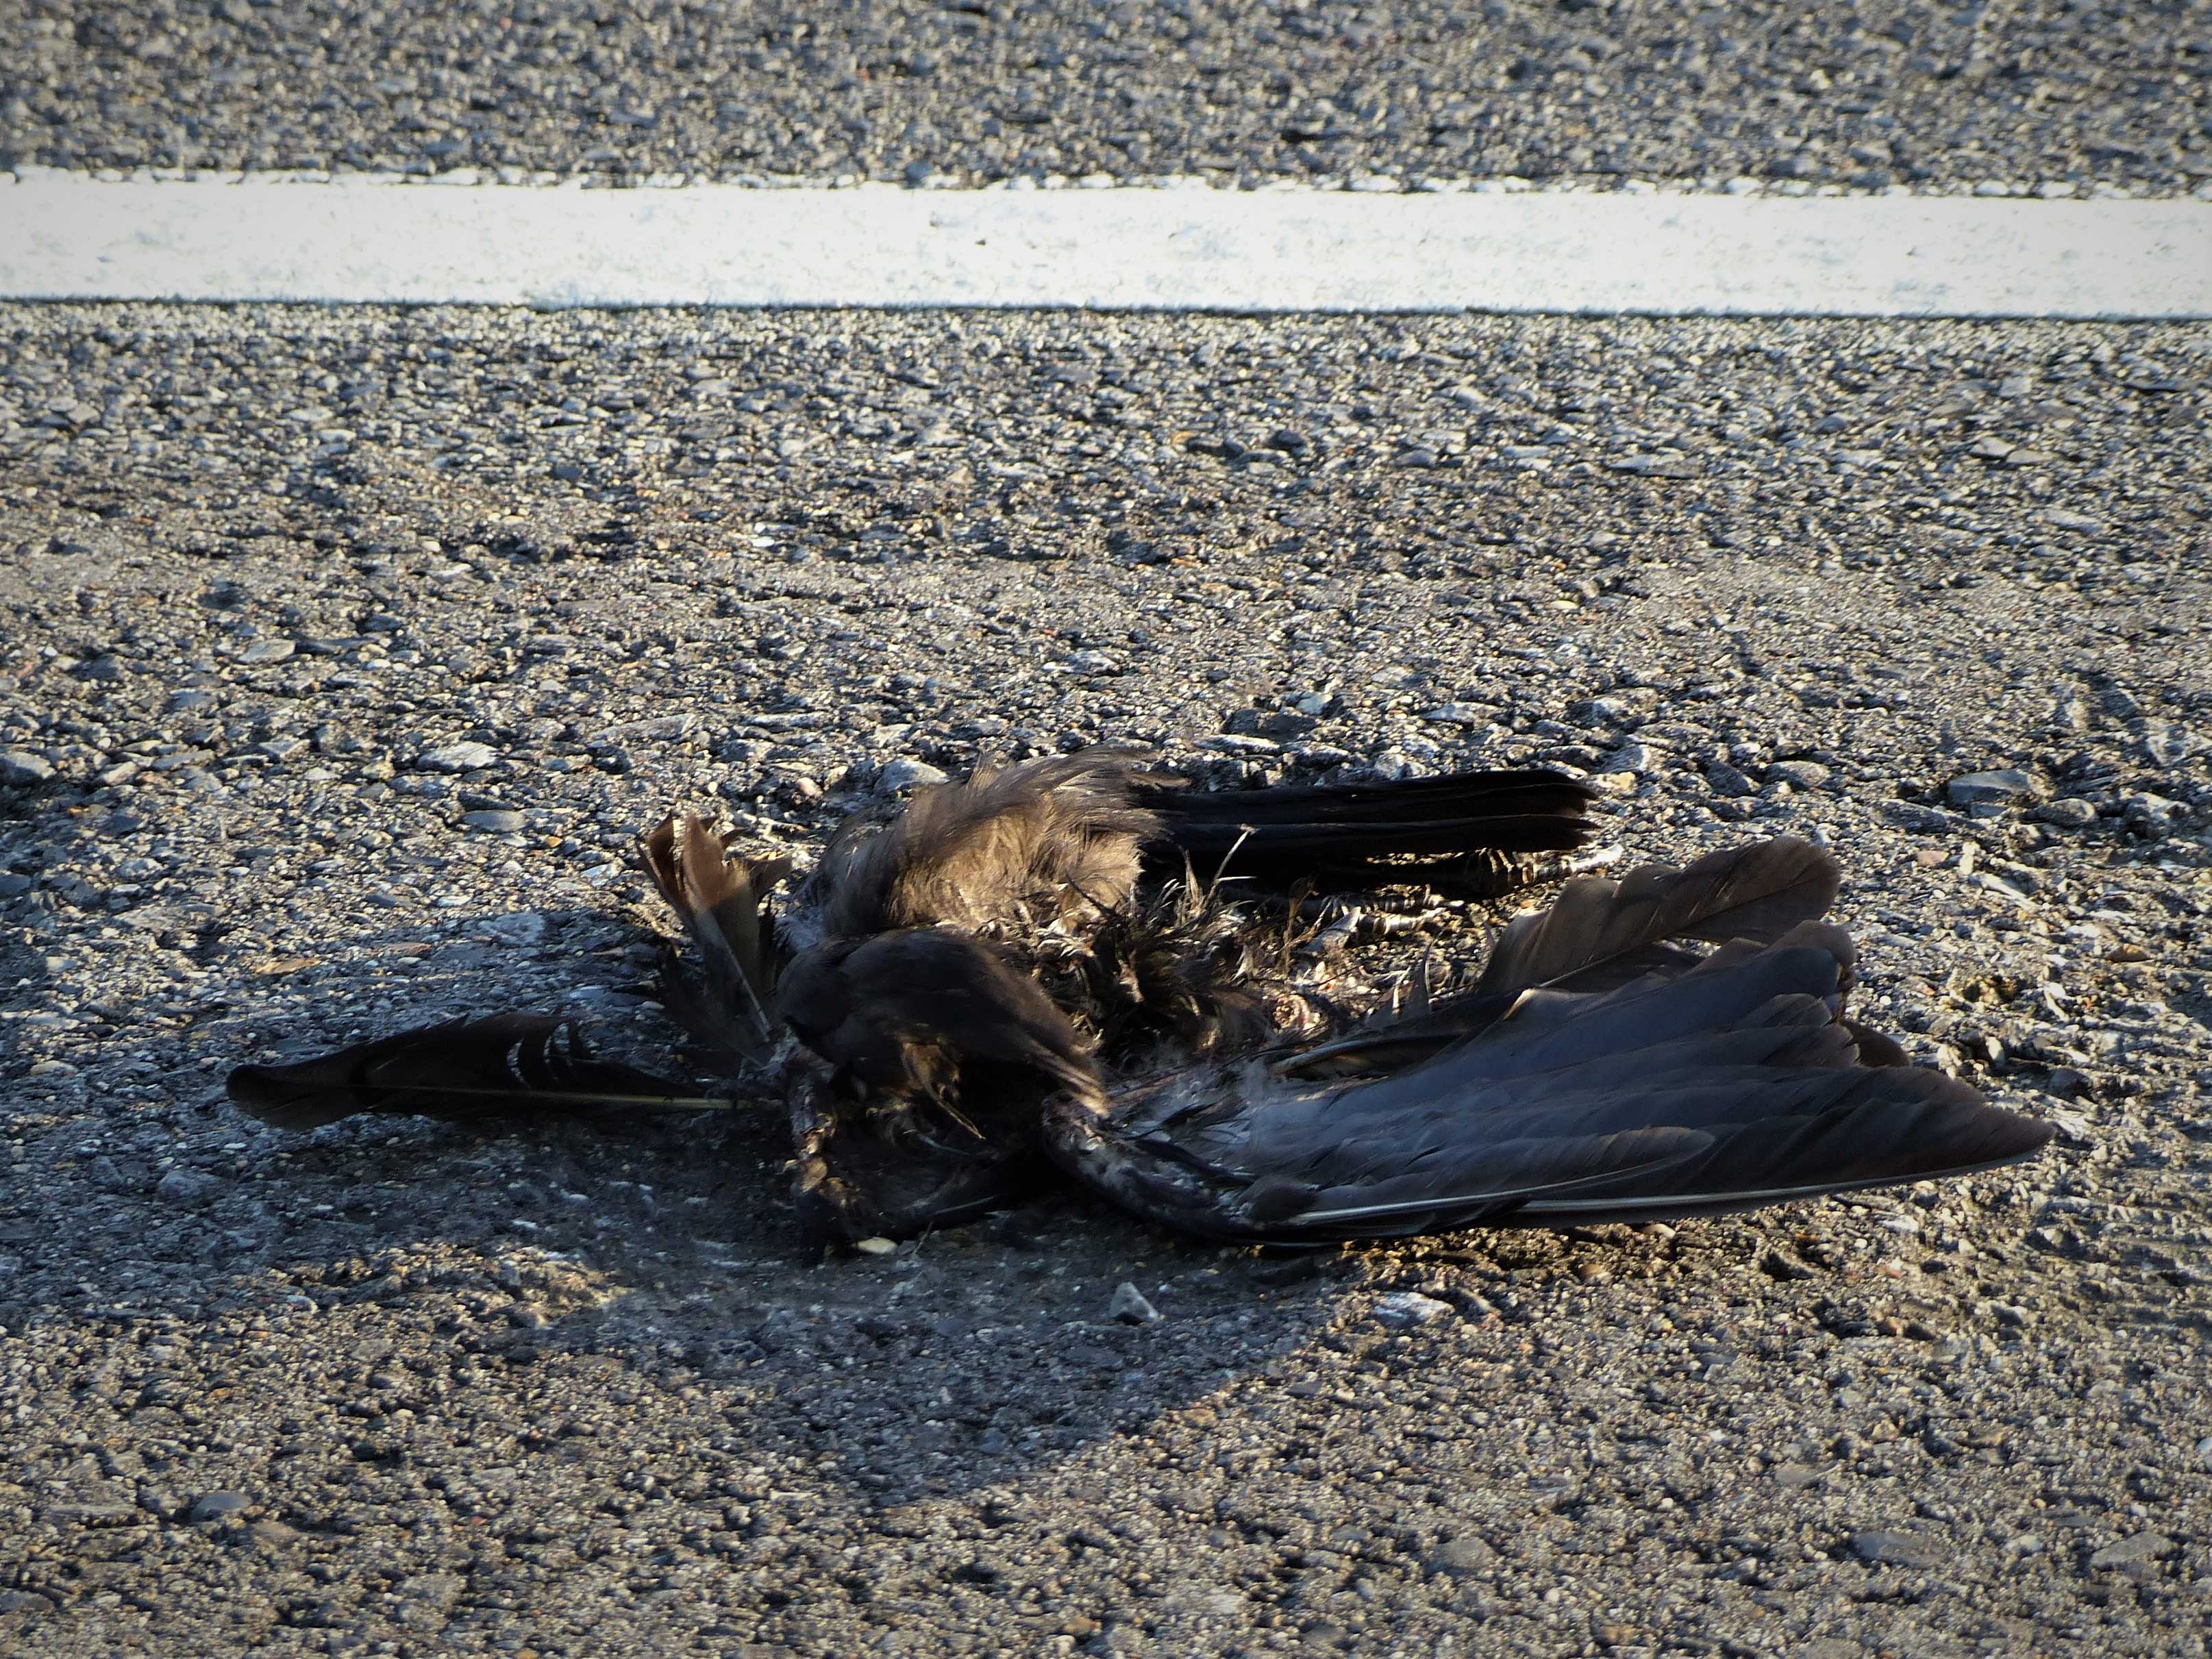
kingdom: Animalia
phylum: Chordata
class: Aves
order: Columbiformes
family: Columbidae
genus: Columba
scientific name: Columba livia
